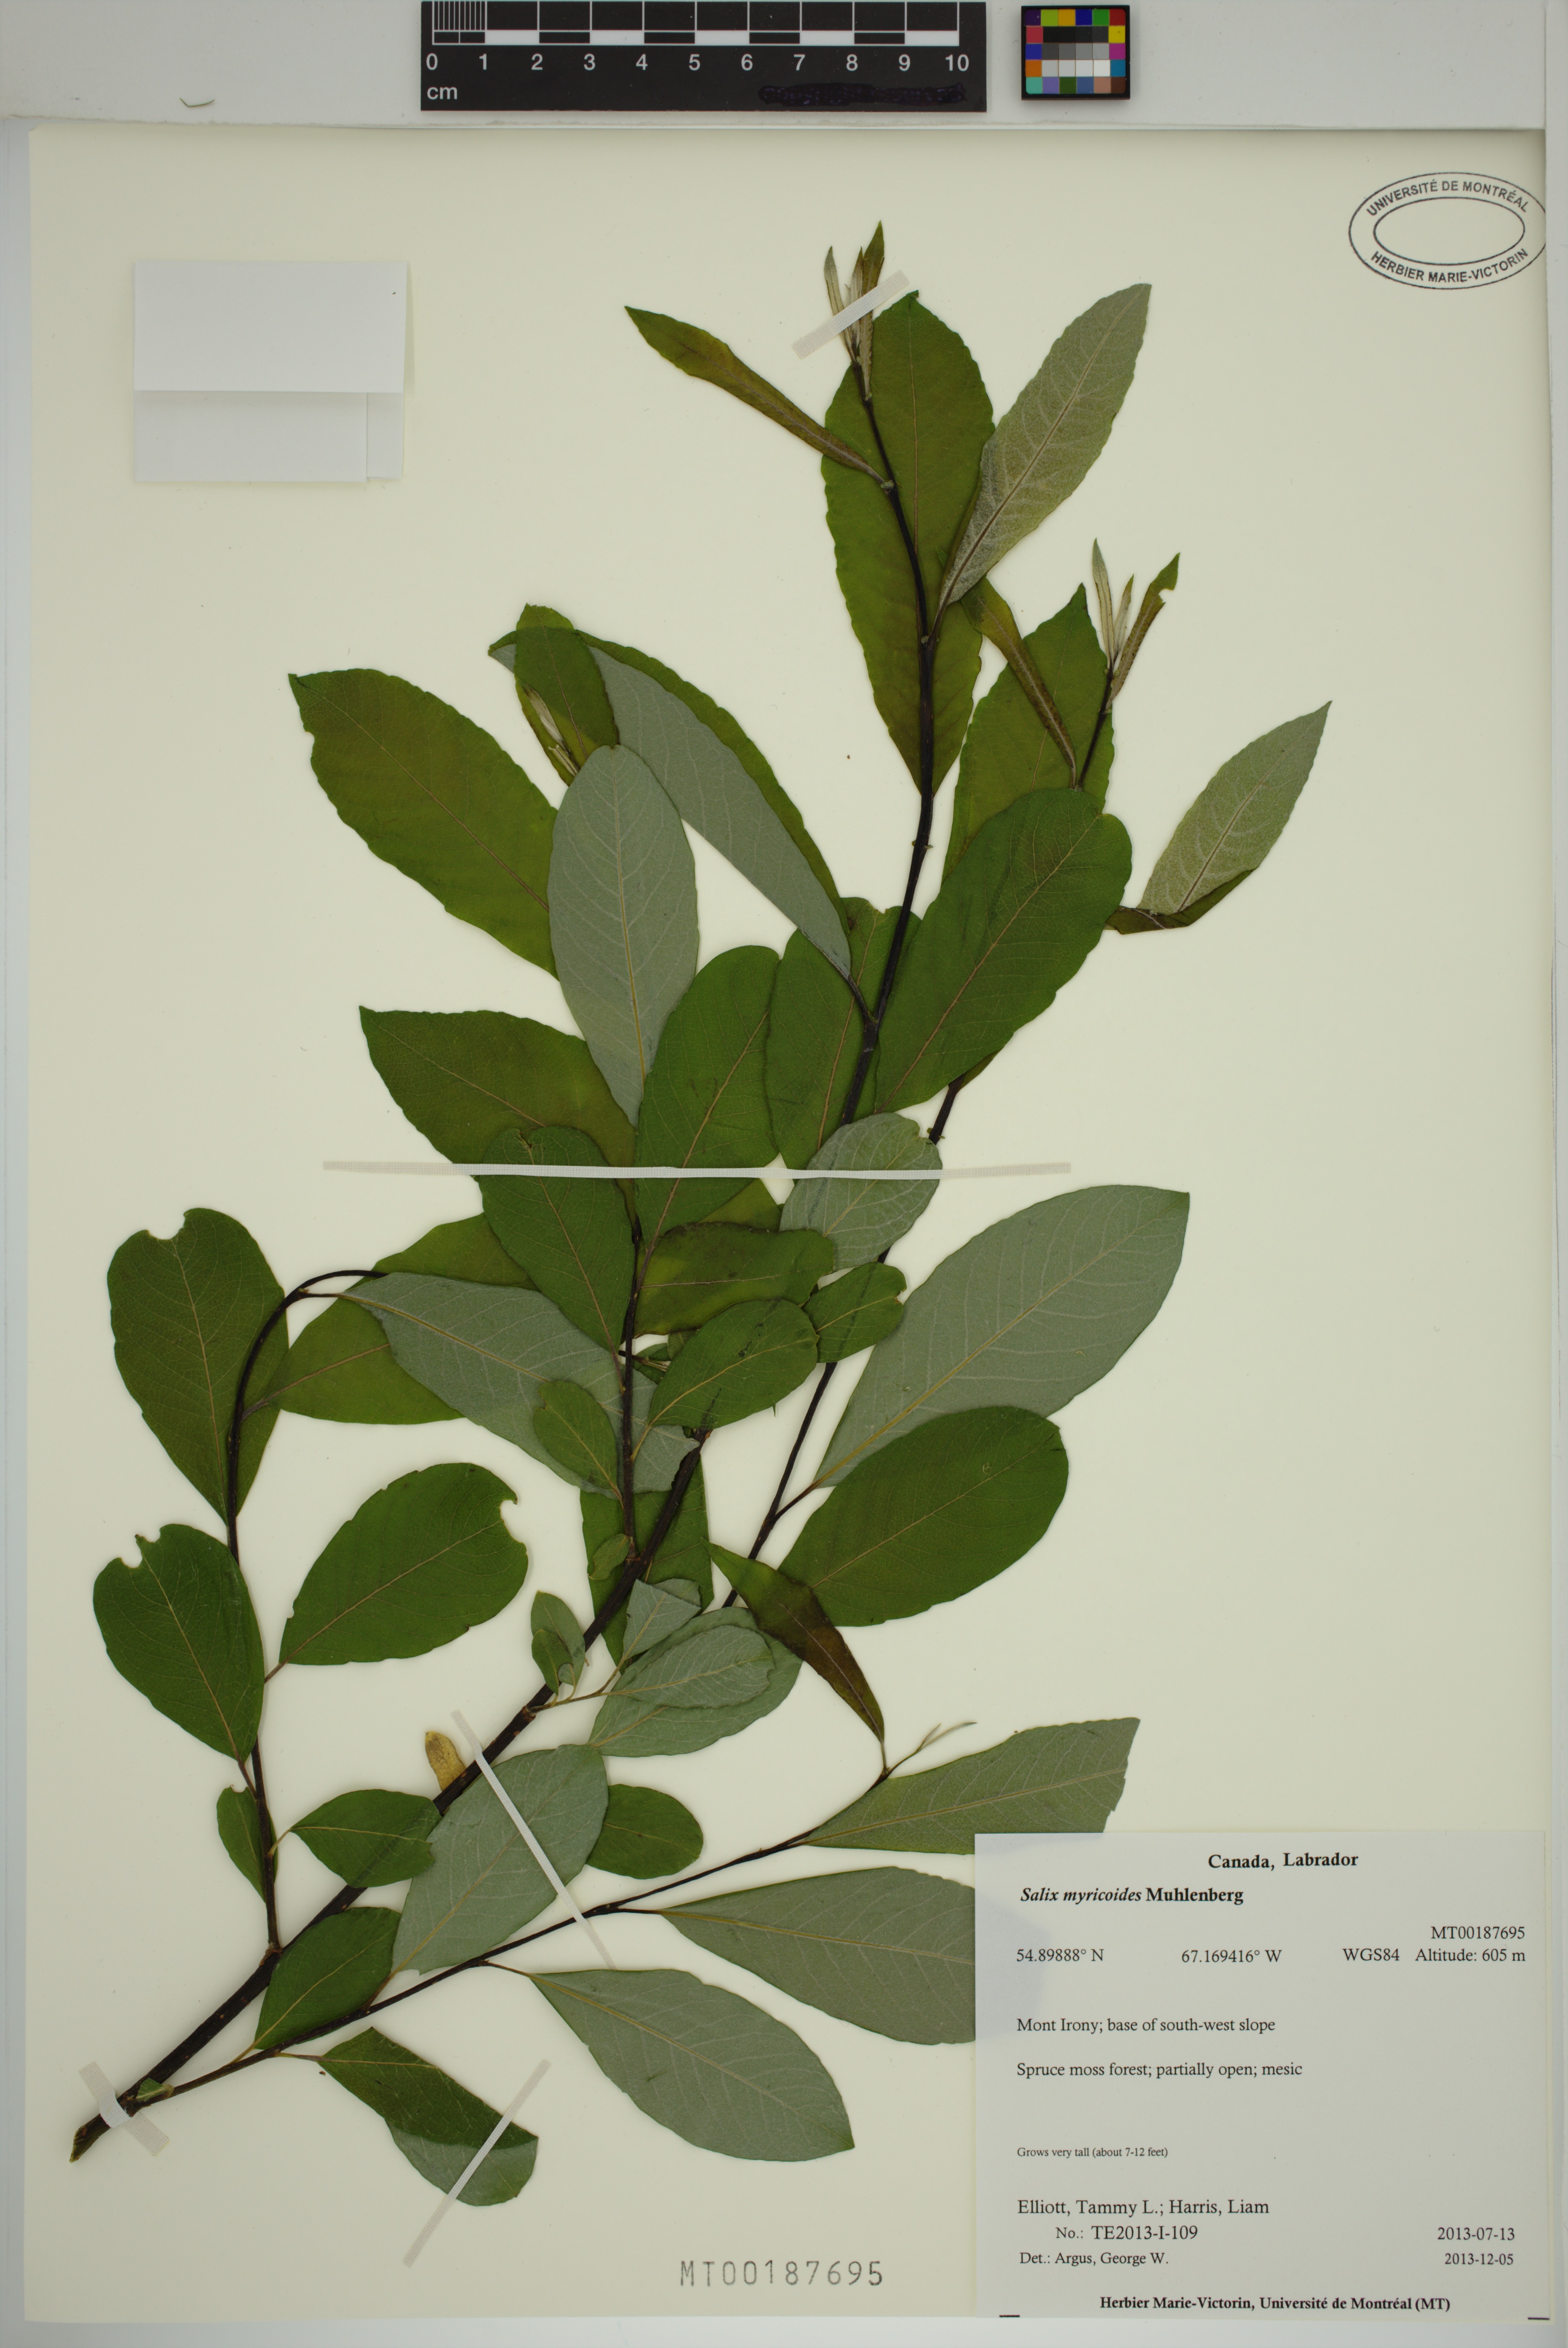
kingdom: Plantae
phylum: Tracheophyta
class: Magnoliopsida
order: Malpighiales
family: Salicaceae
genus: Salix
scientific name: Salix myricoides
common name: Bayberry willow
